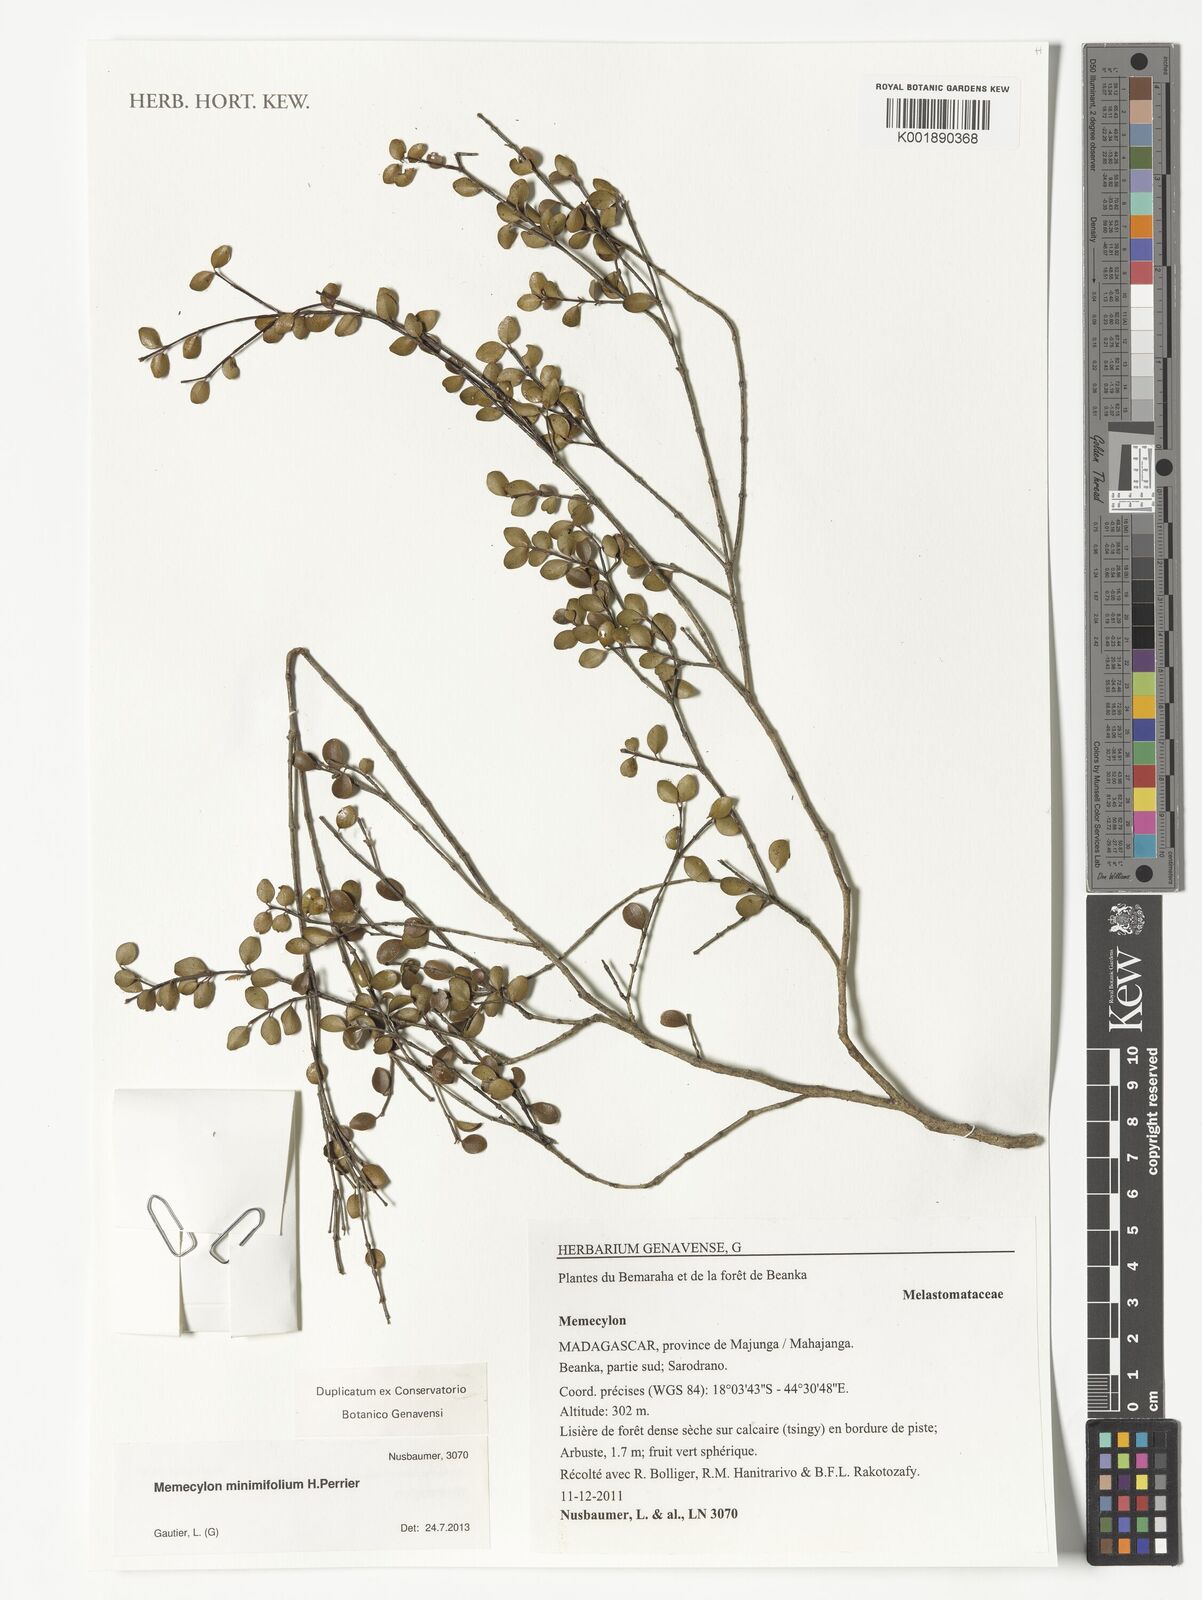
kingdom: Plantae
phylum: Tracheophyta
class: Magnoliopsida
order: Myrtales
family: Melastomataceae
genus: Memecylon
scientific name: Memecylon minimifolium
